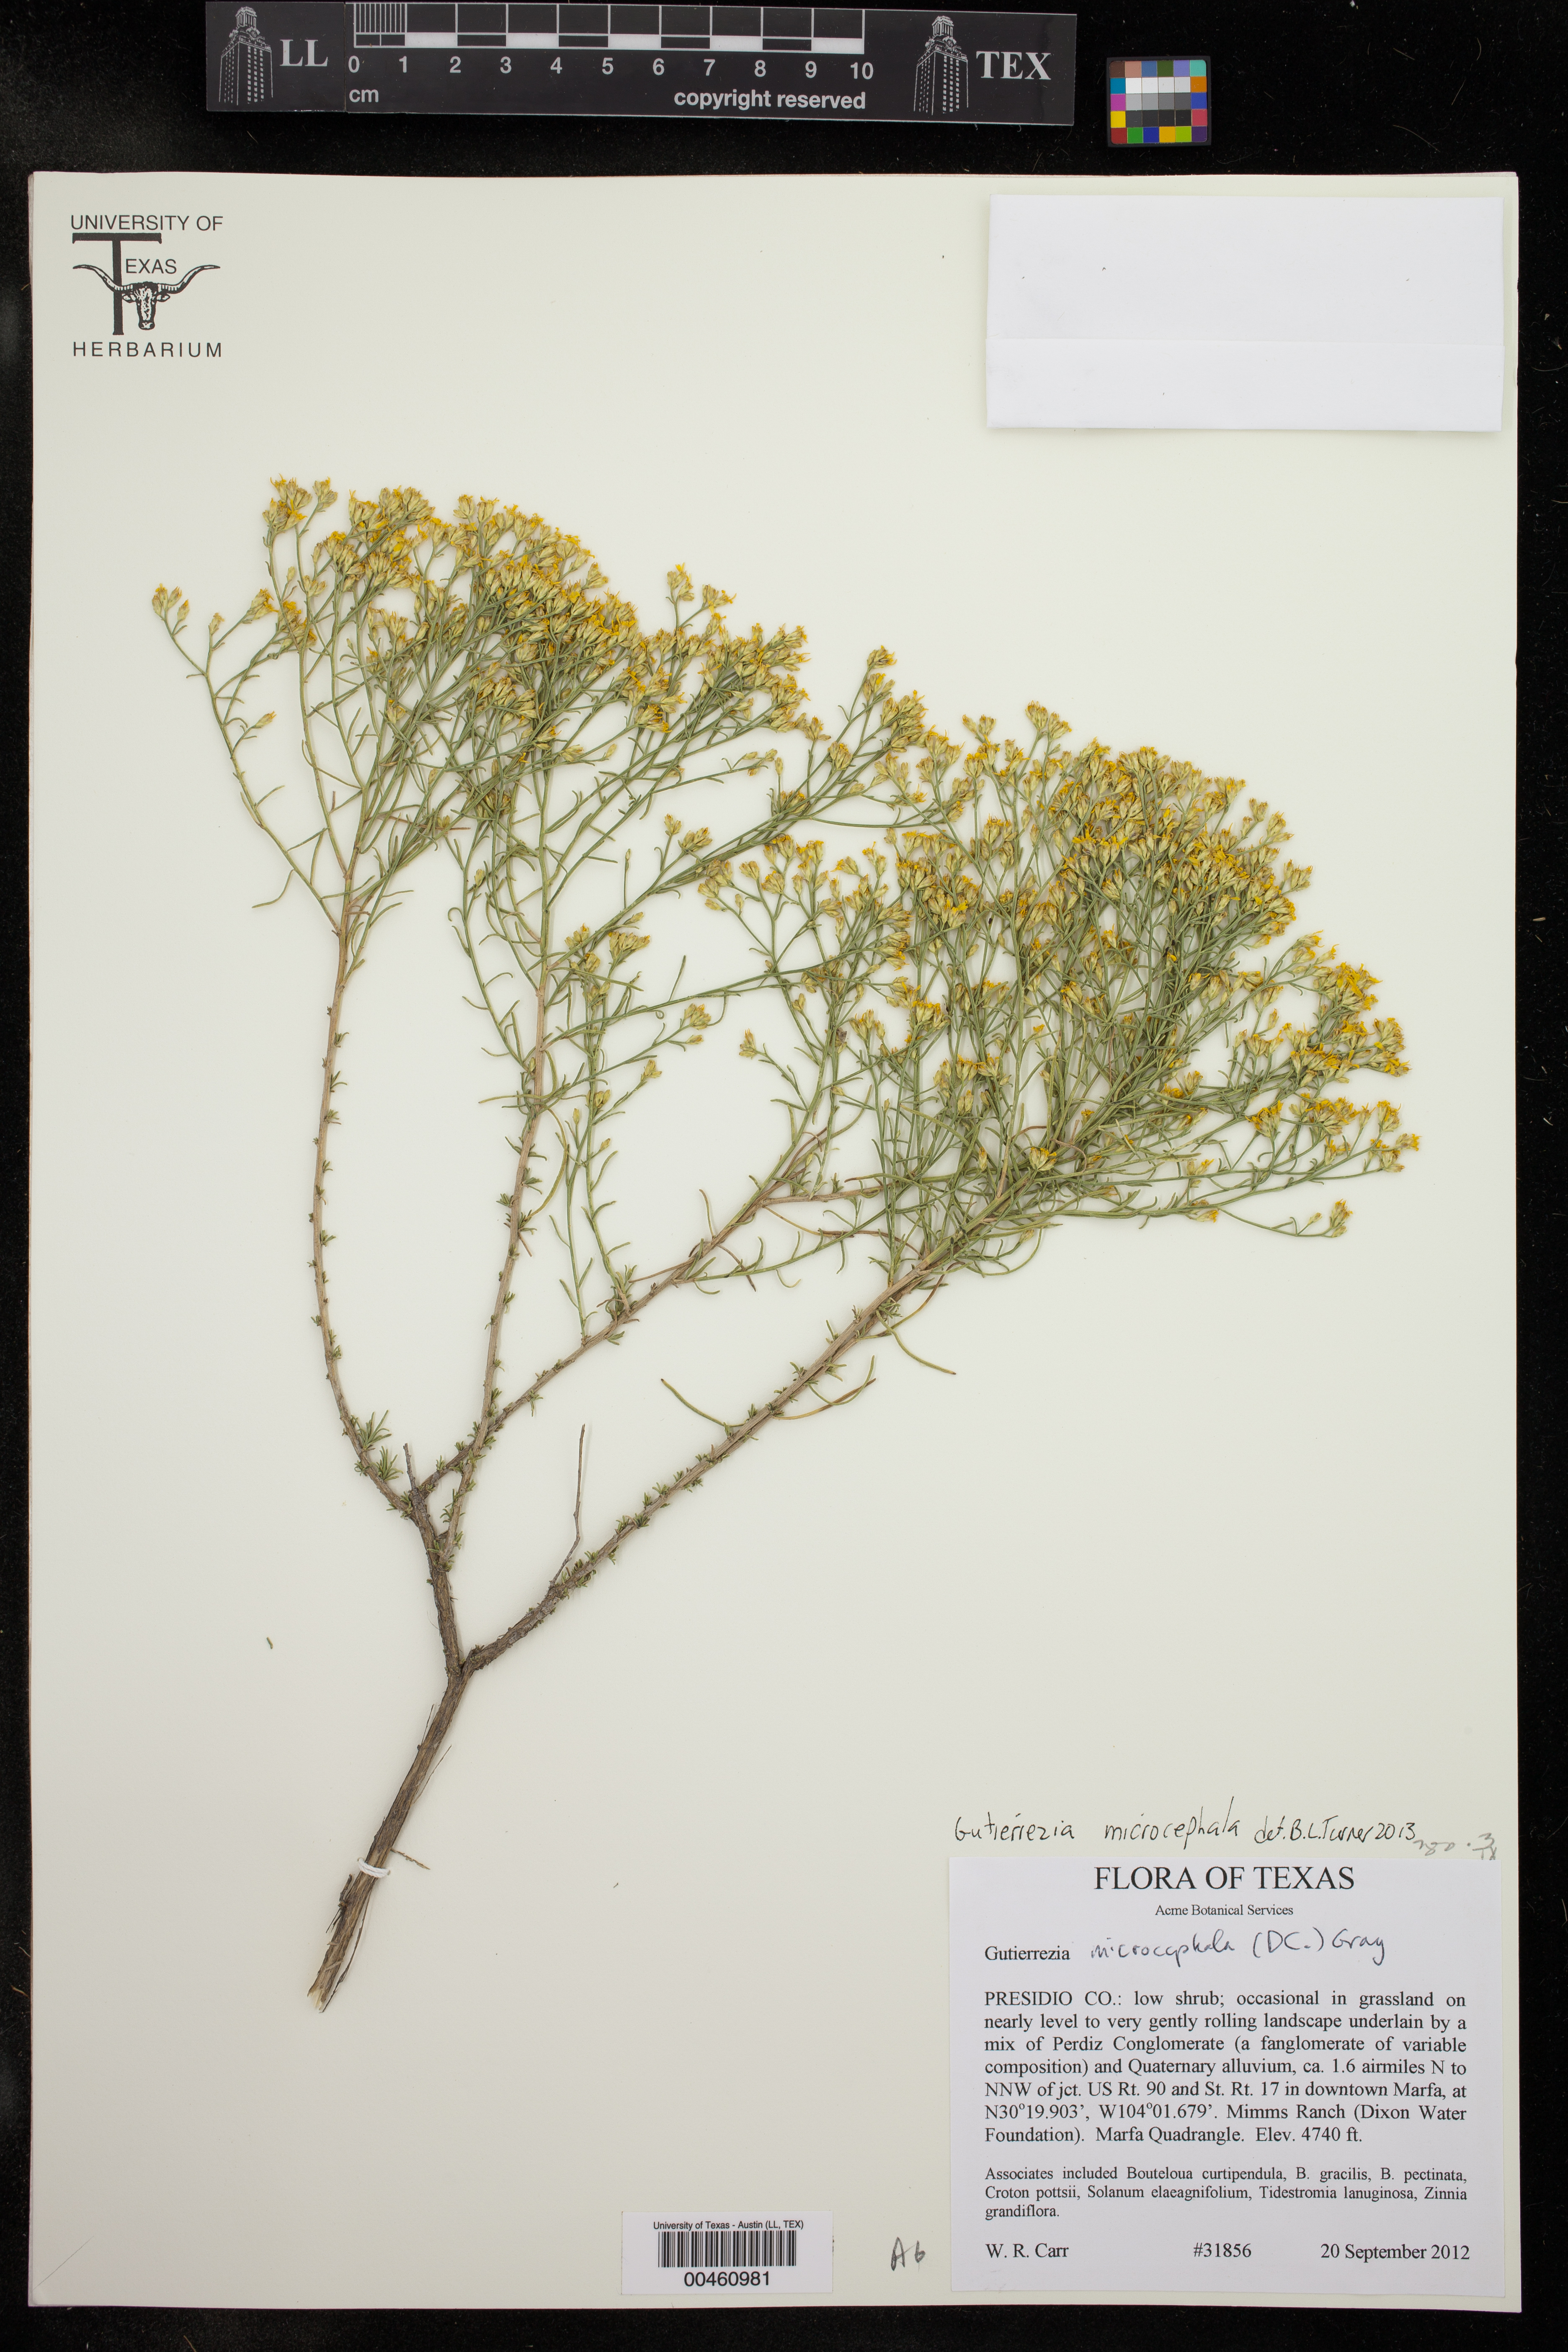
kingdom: Plantae
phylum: Tracheophyta
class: Magnoliopsida
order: Asterales
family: Asteraceae
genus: Gutierrezia
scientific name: Gutierrezia microcephala
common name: Thread snakeweed
